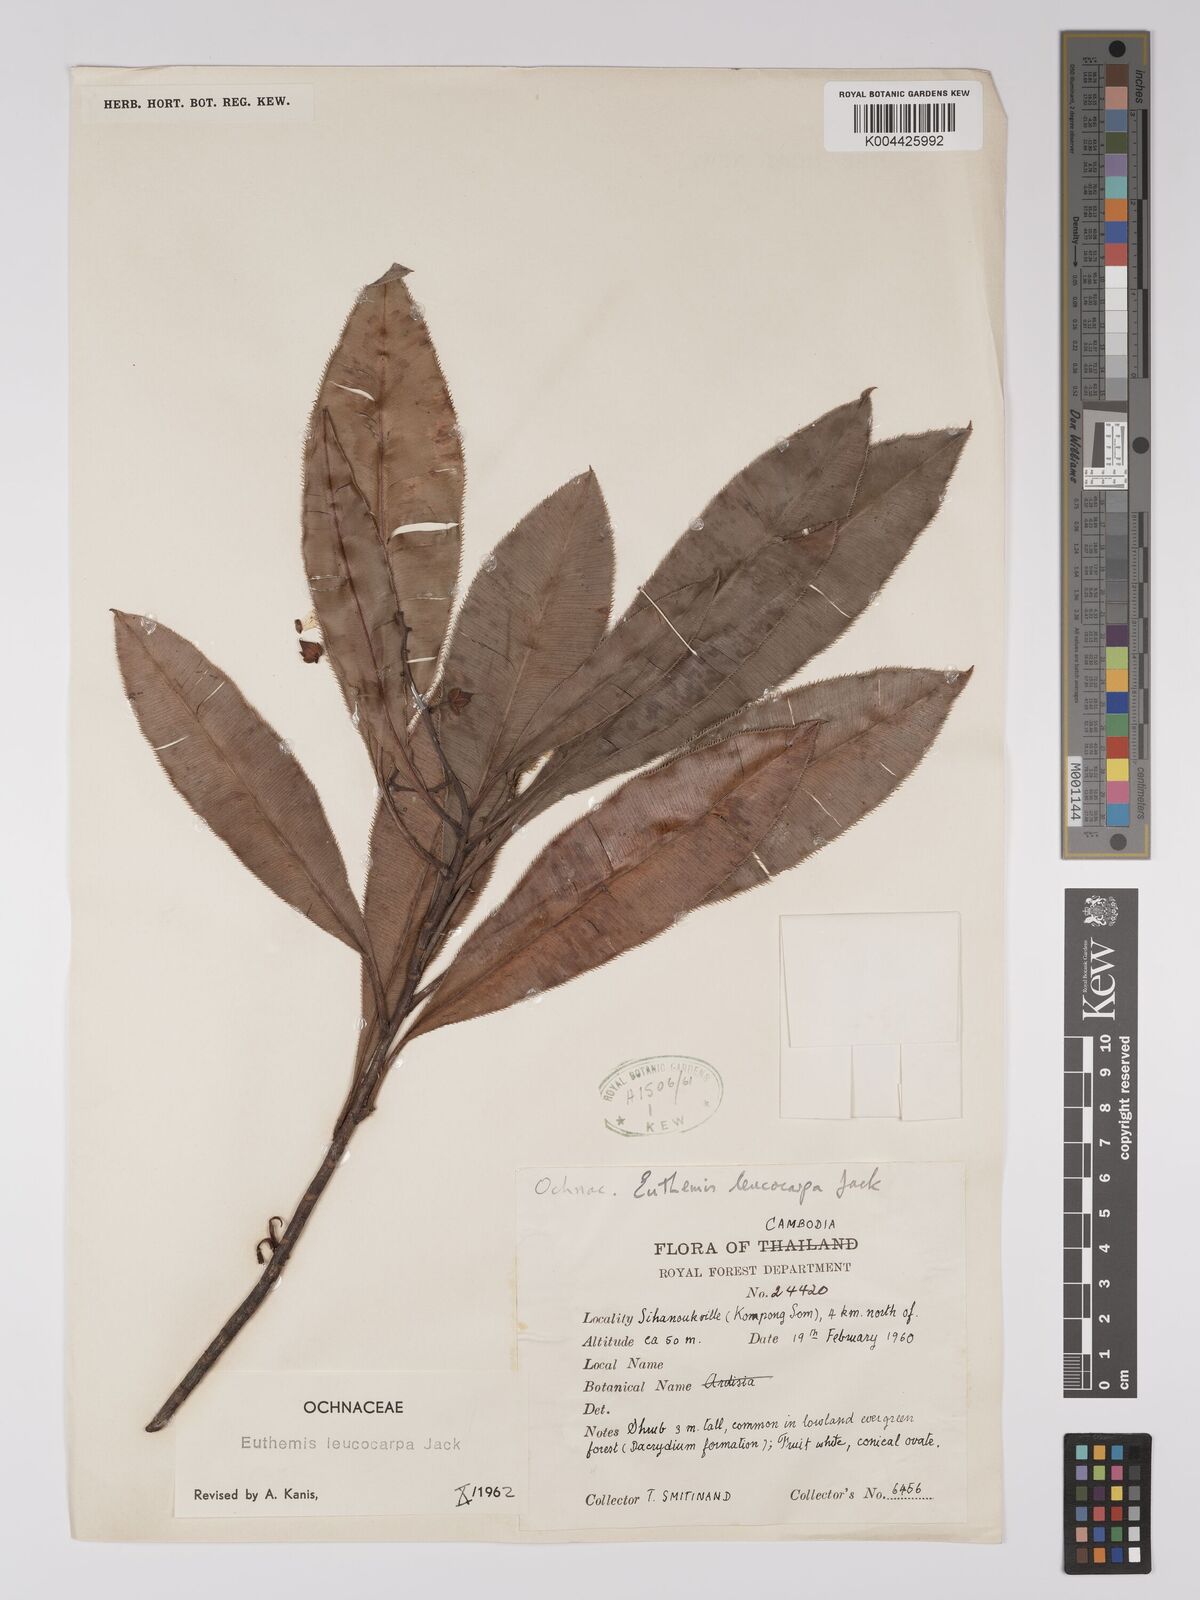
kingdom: Plantae
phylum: Tracheophyta
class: Magnoliopsida
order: Malpighiales
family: Ochnaceae
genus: Euthemis
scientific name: Euthemis leucocarpa
